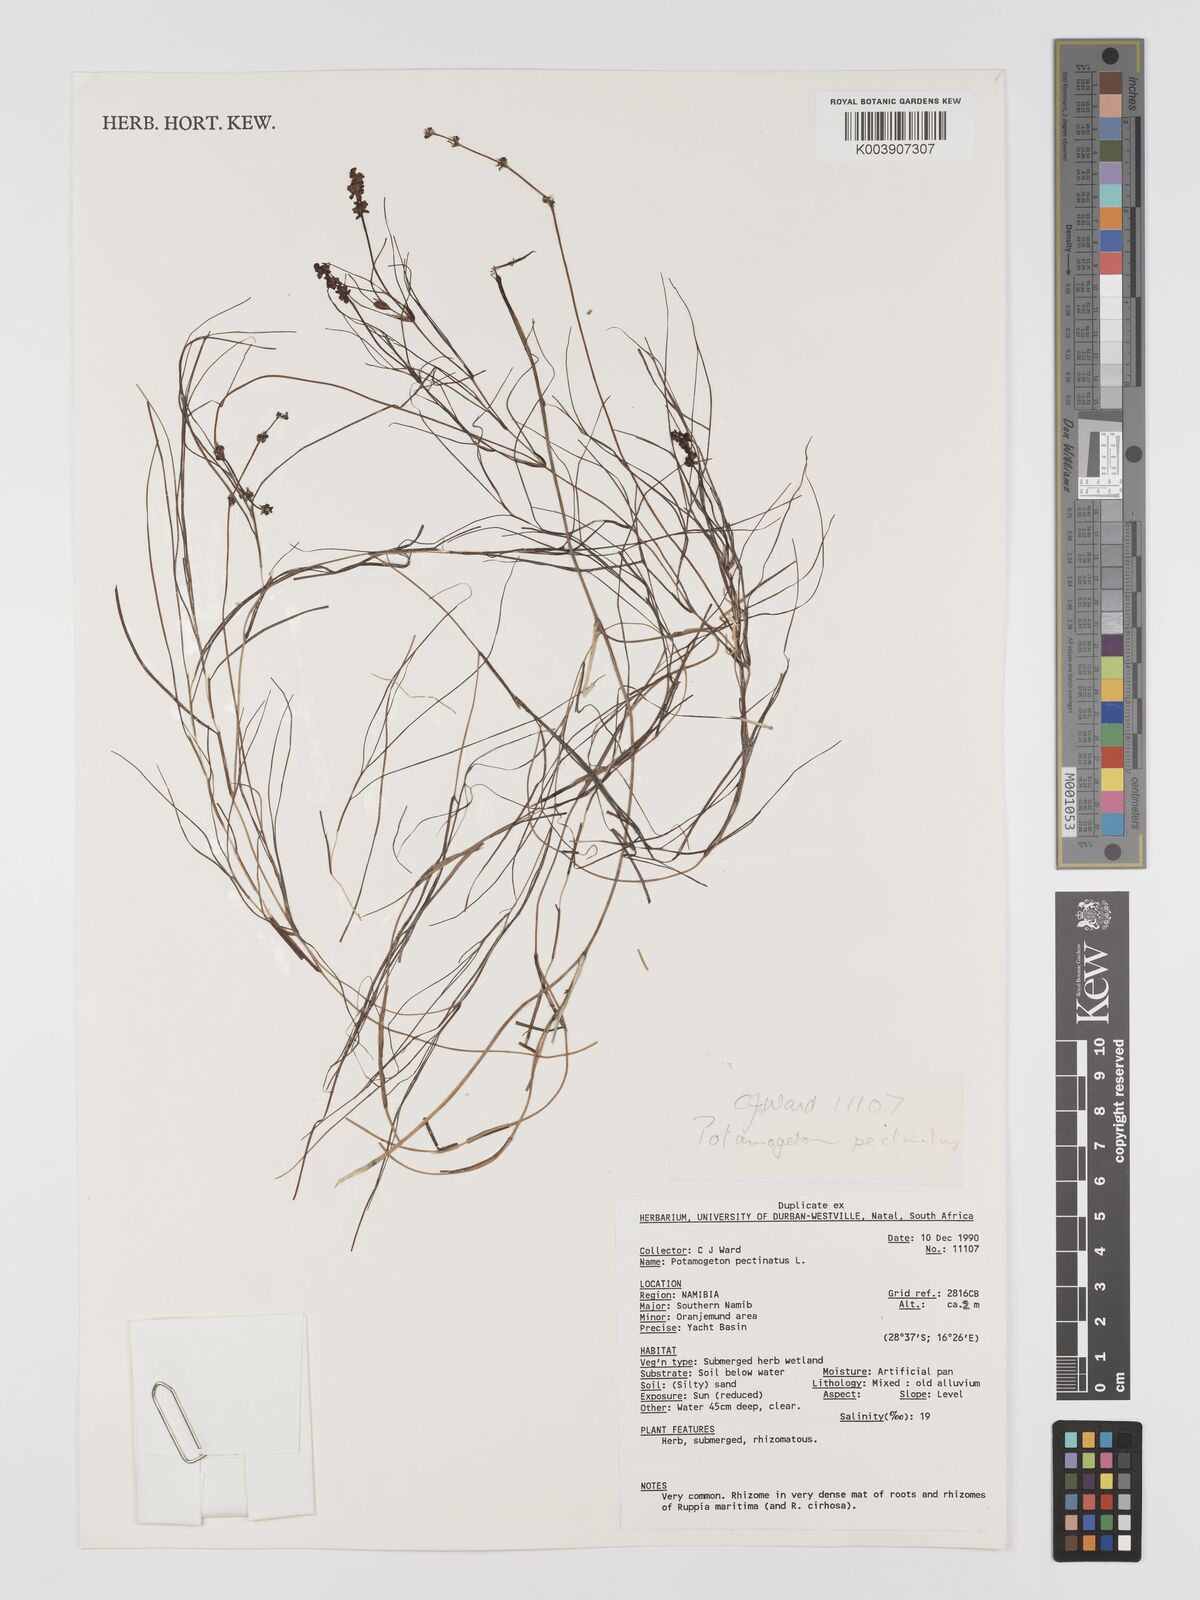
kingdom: Plantae
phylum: Tracheophyta
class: Liliopsida
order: Alismatales
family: Potamogetonaceae
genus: Stuckenia
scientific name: Stuckenia pectinata
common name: Sago pondweed
